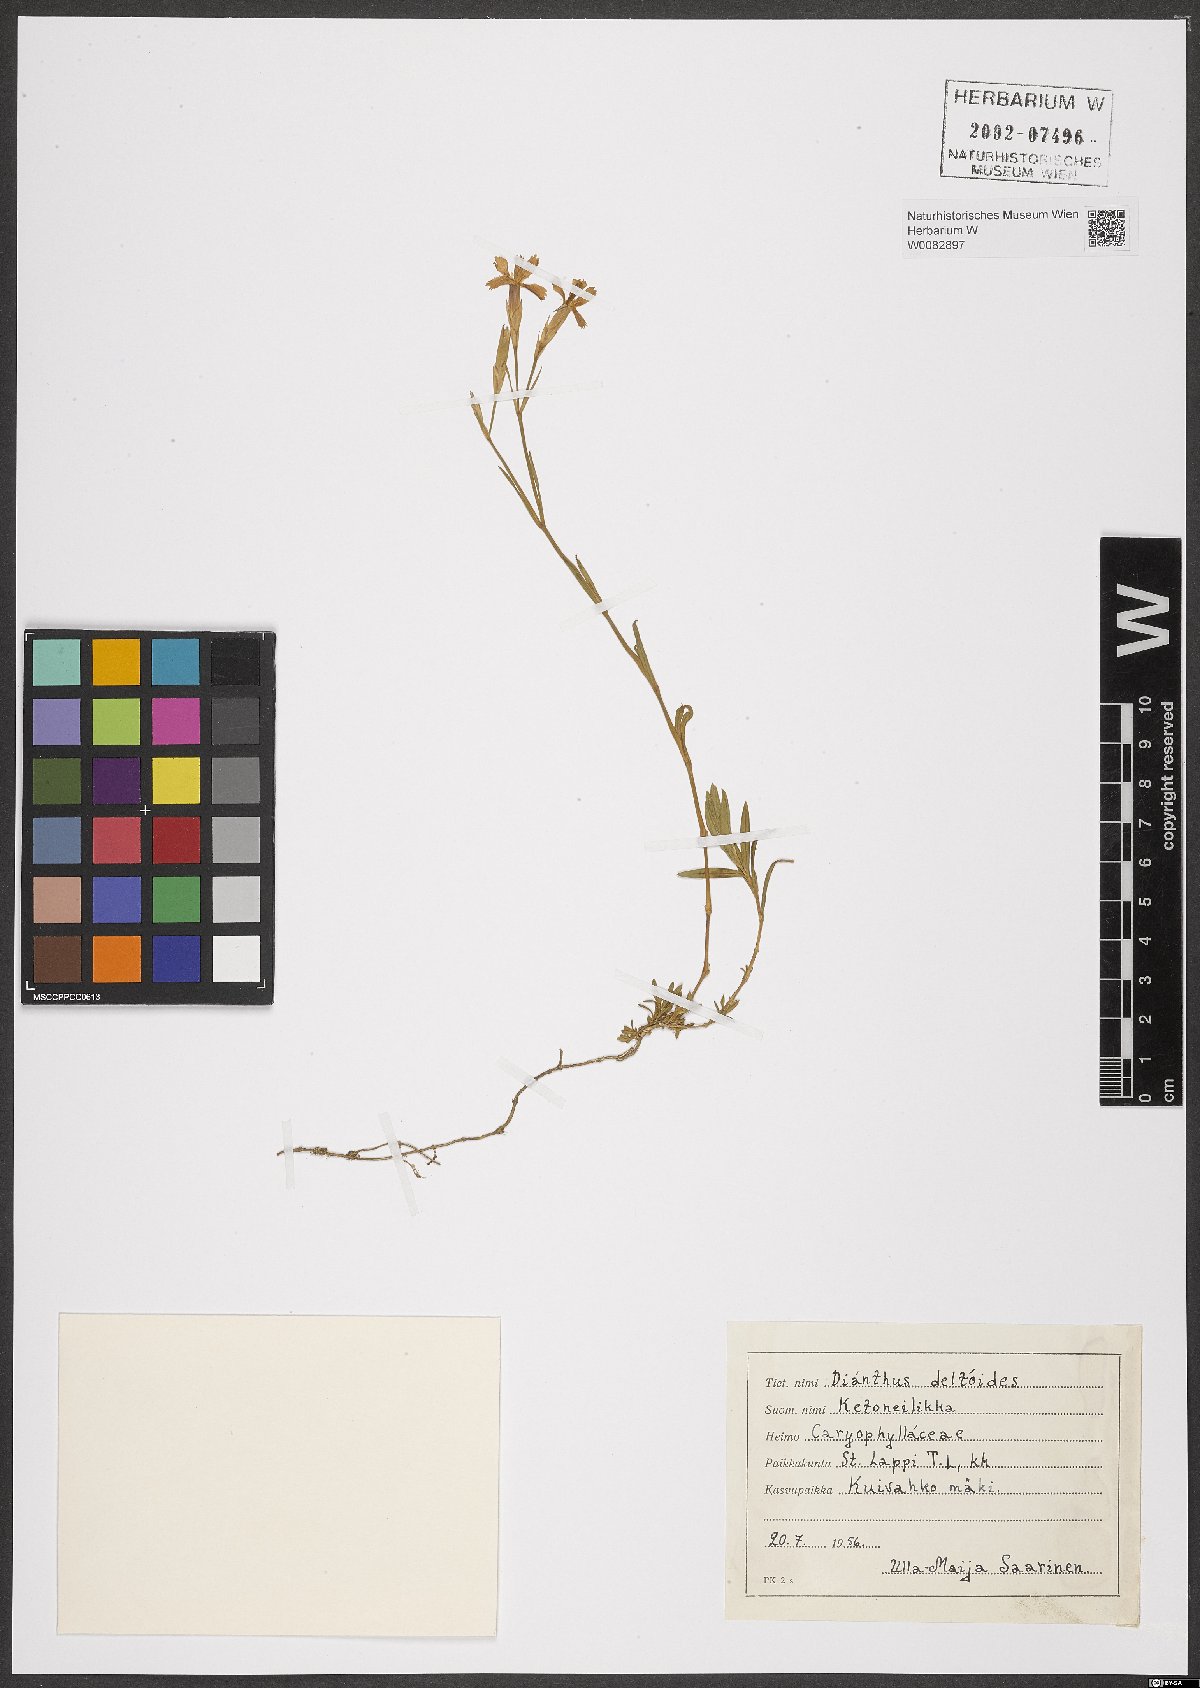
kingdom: Plantae
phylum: Tracheophyta
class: Magnoliopsida
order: Caryophyllales
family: Caryophyllaceae
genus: Dianthus
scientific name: Dianthus deltoides
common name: Maiden pink
